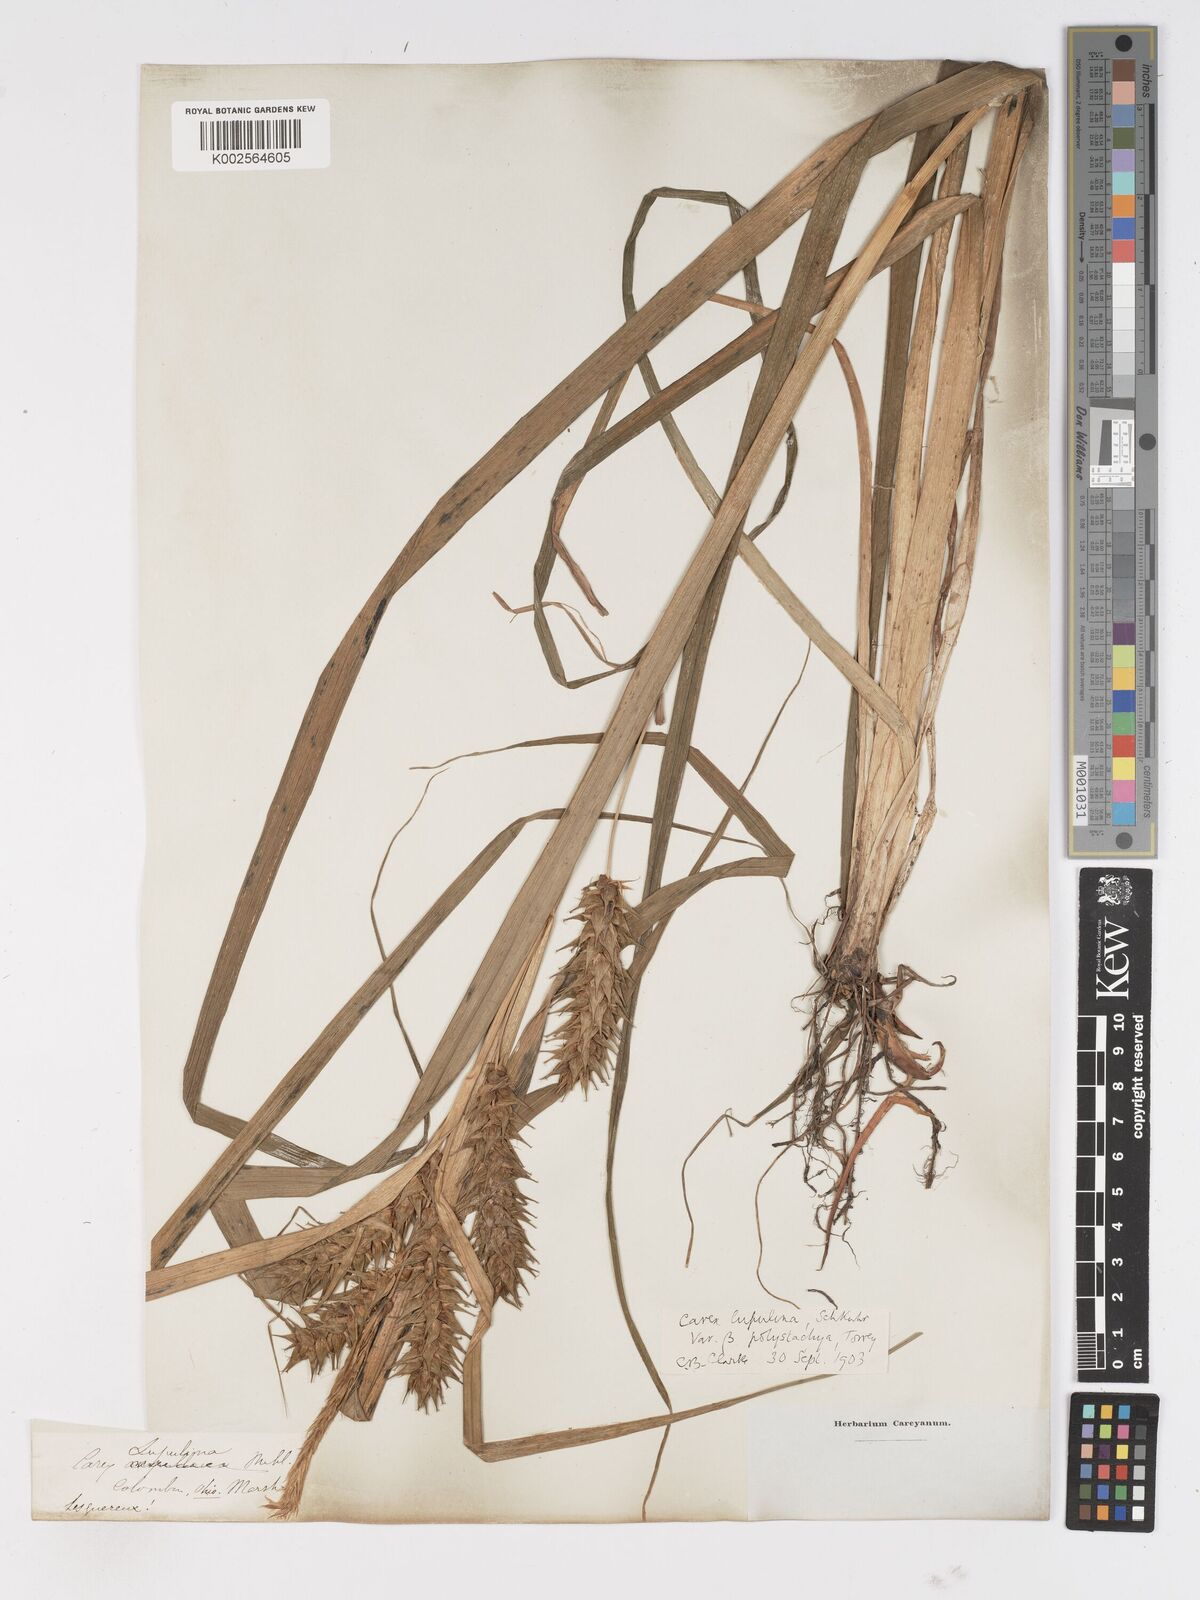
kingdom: Plantae
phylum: Tracheophyta
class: Liliopsida
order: Poales
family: Cyperaceae
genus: Carex
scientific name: Carex lupuliformis
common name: False hop sedge
